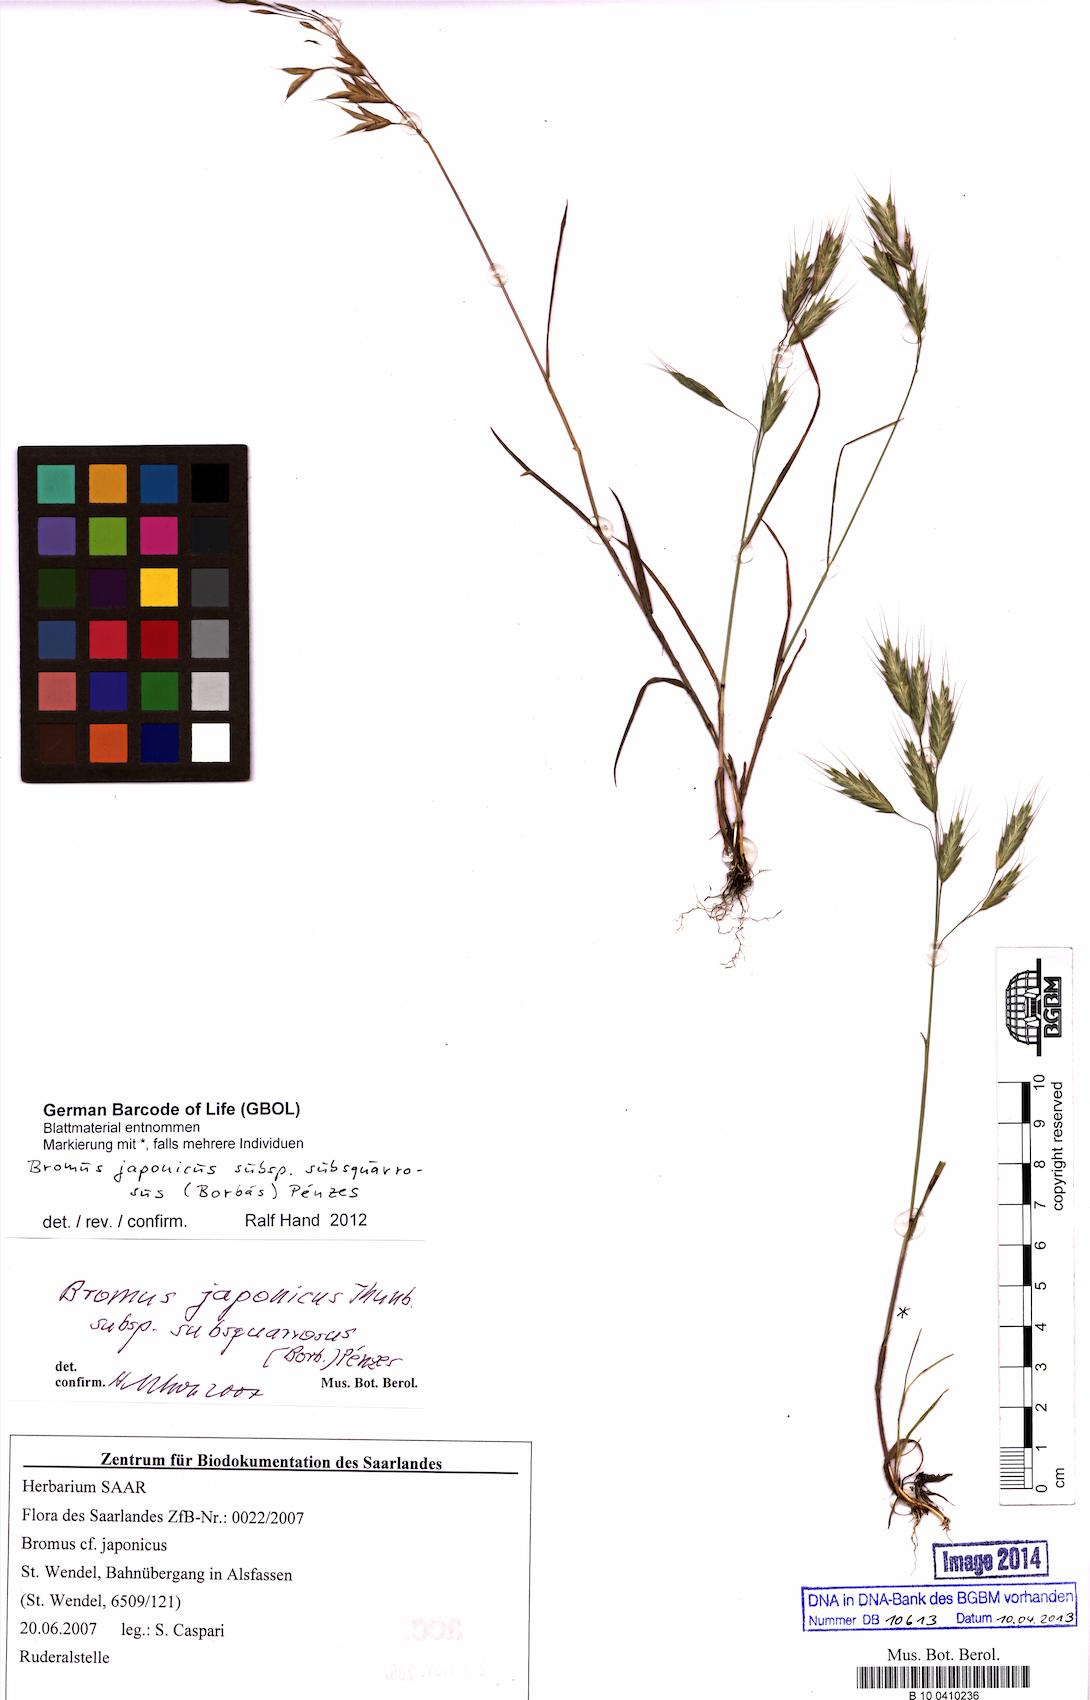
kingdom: Plantae
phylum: Tracheophyta
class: Liliopsida
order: Poales
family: Poaceae
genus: Bromus
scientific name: Bromus japonicus
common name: Japanese brome
